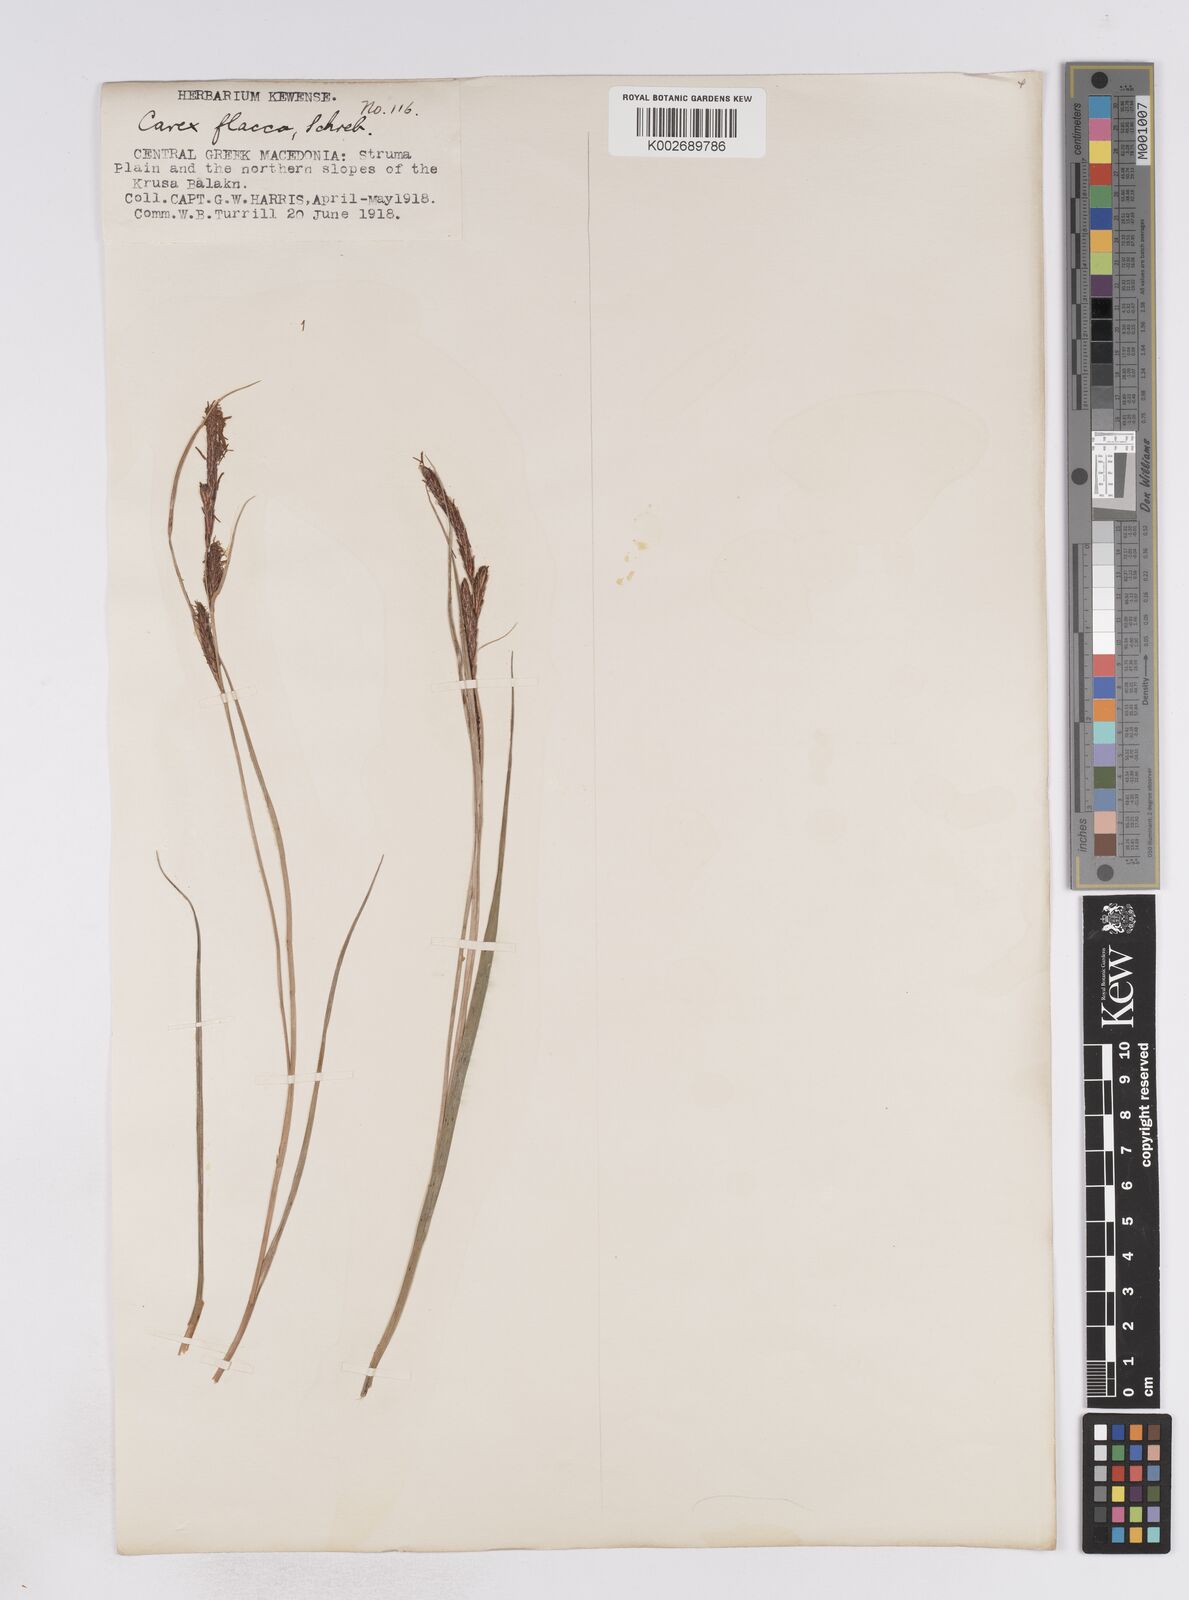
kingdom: Plantae
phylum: Tracheophyta
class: Liliopsida
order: Poales
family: Cyperaceae
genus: Carex
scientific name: Carex flacca
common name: Glaucous sedge
